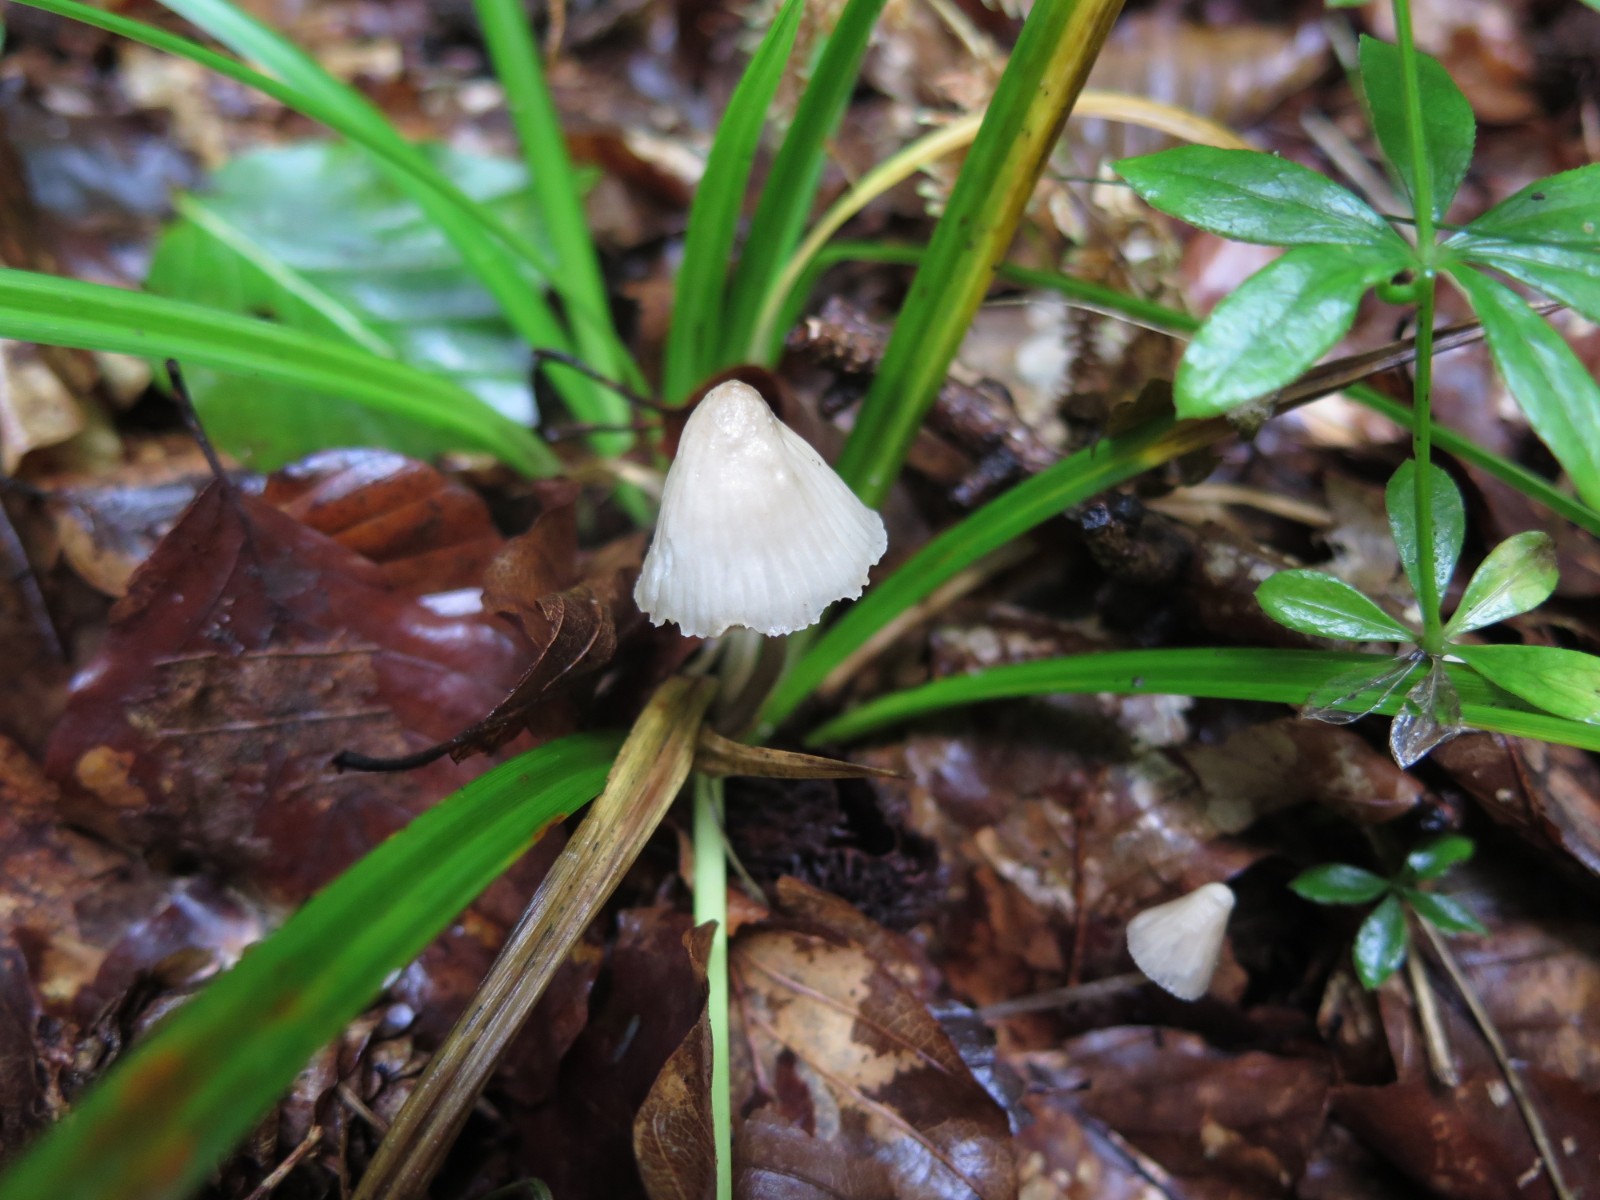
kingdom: Fungi
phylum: Basidiomycota
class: Agaricomycetes
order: Agaricales
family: Mycenaceae
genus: Mycena
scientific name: Mycena
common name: huesvamp
